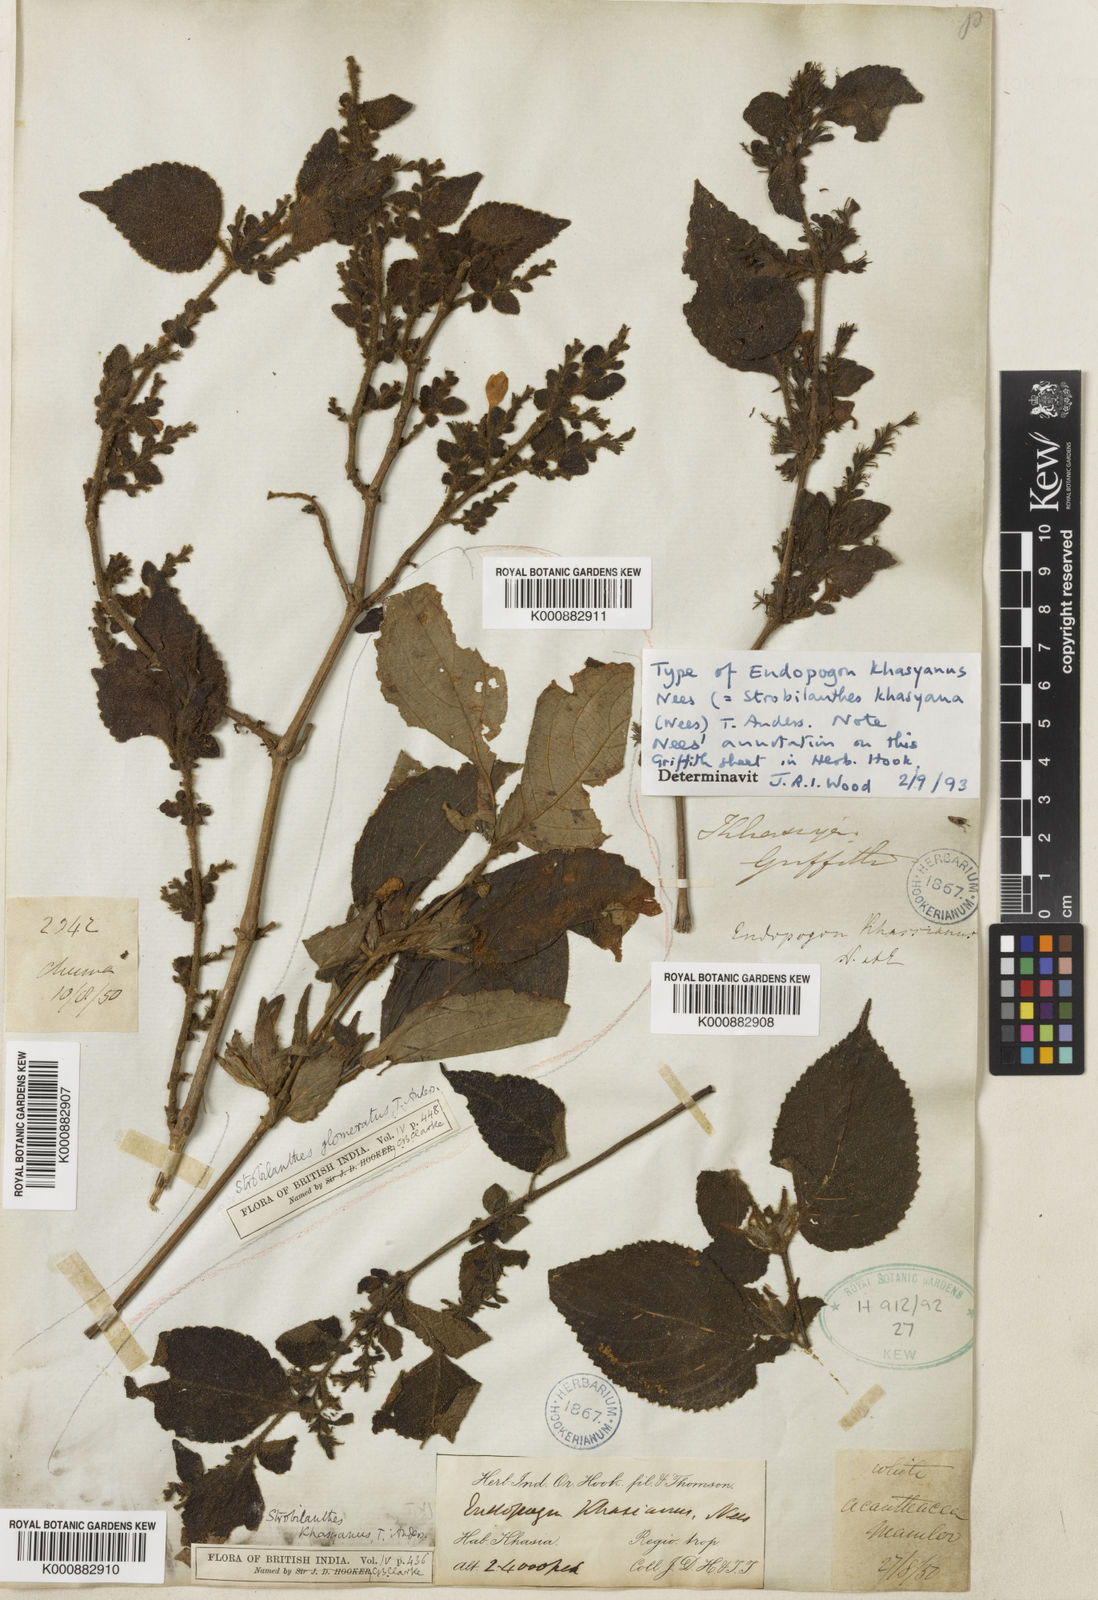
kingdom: Plantae
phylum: Tracheophyta
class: Magnoliopsida
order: Lamiales
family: Acanthaceae
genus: Strobilanthes
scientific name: Strobilanthes khasyana
